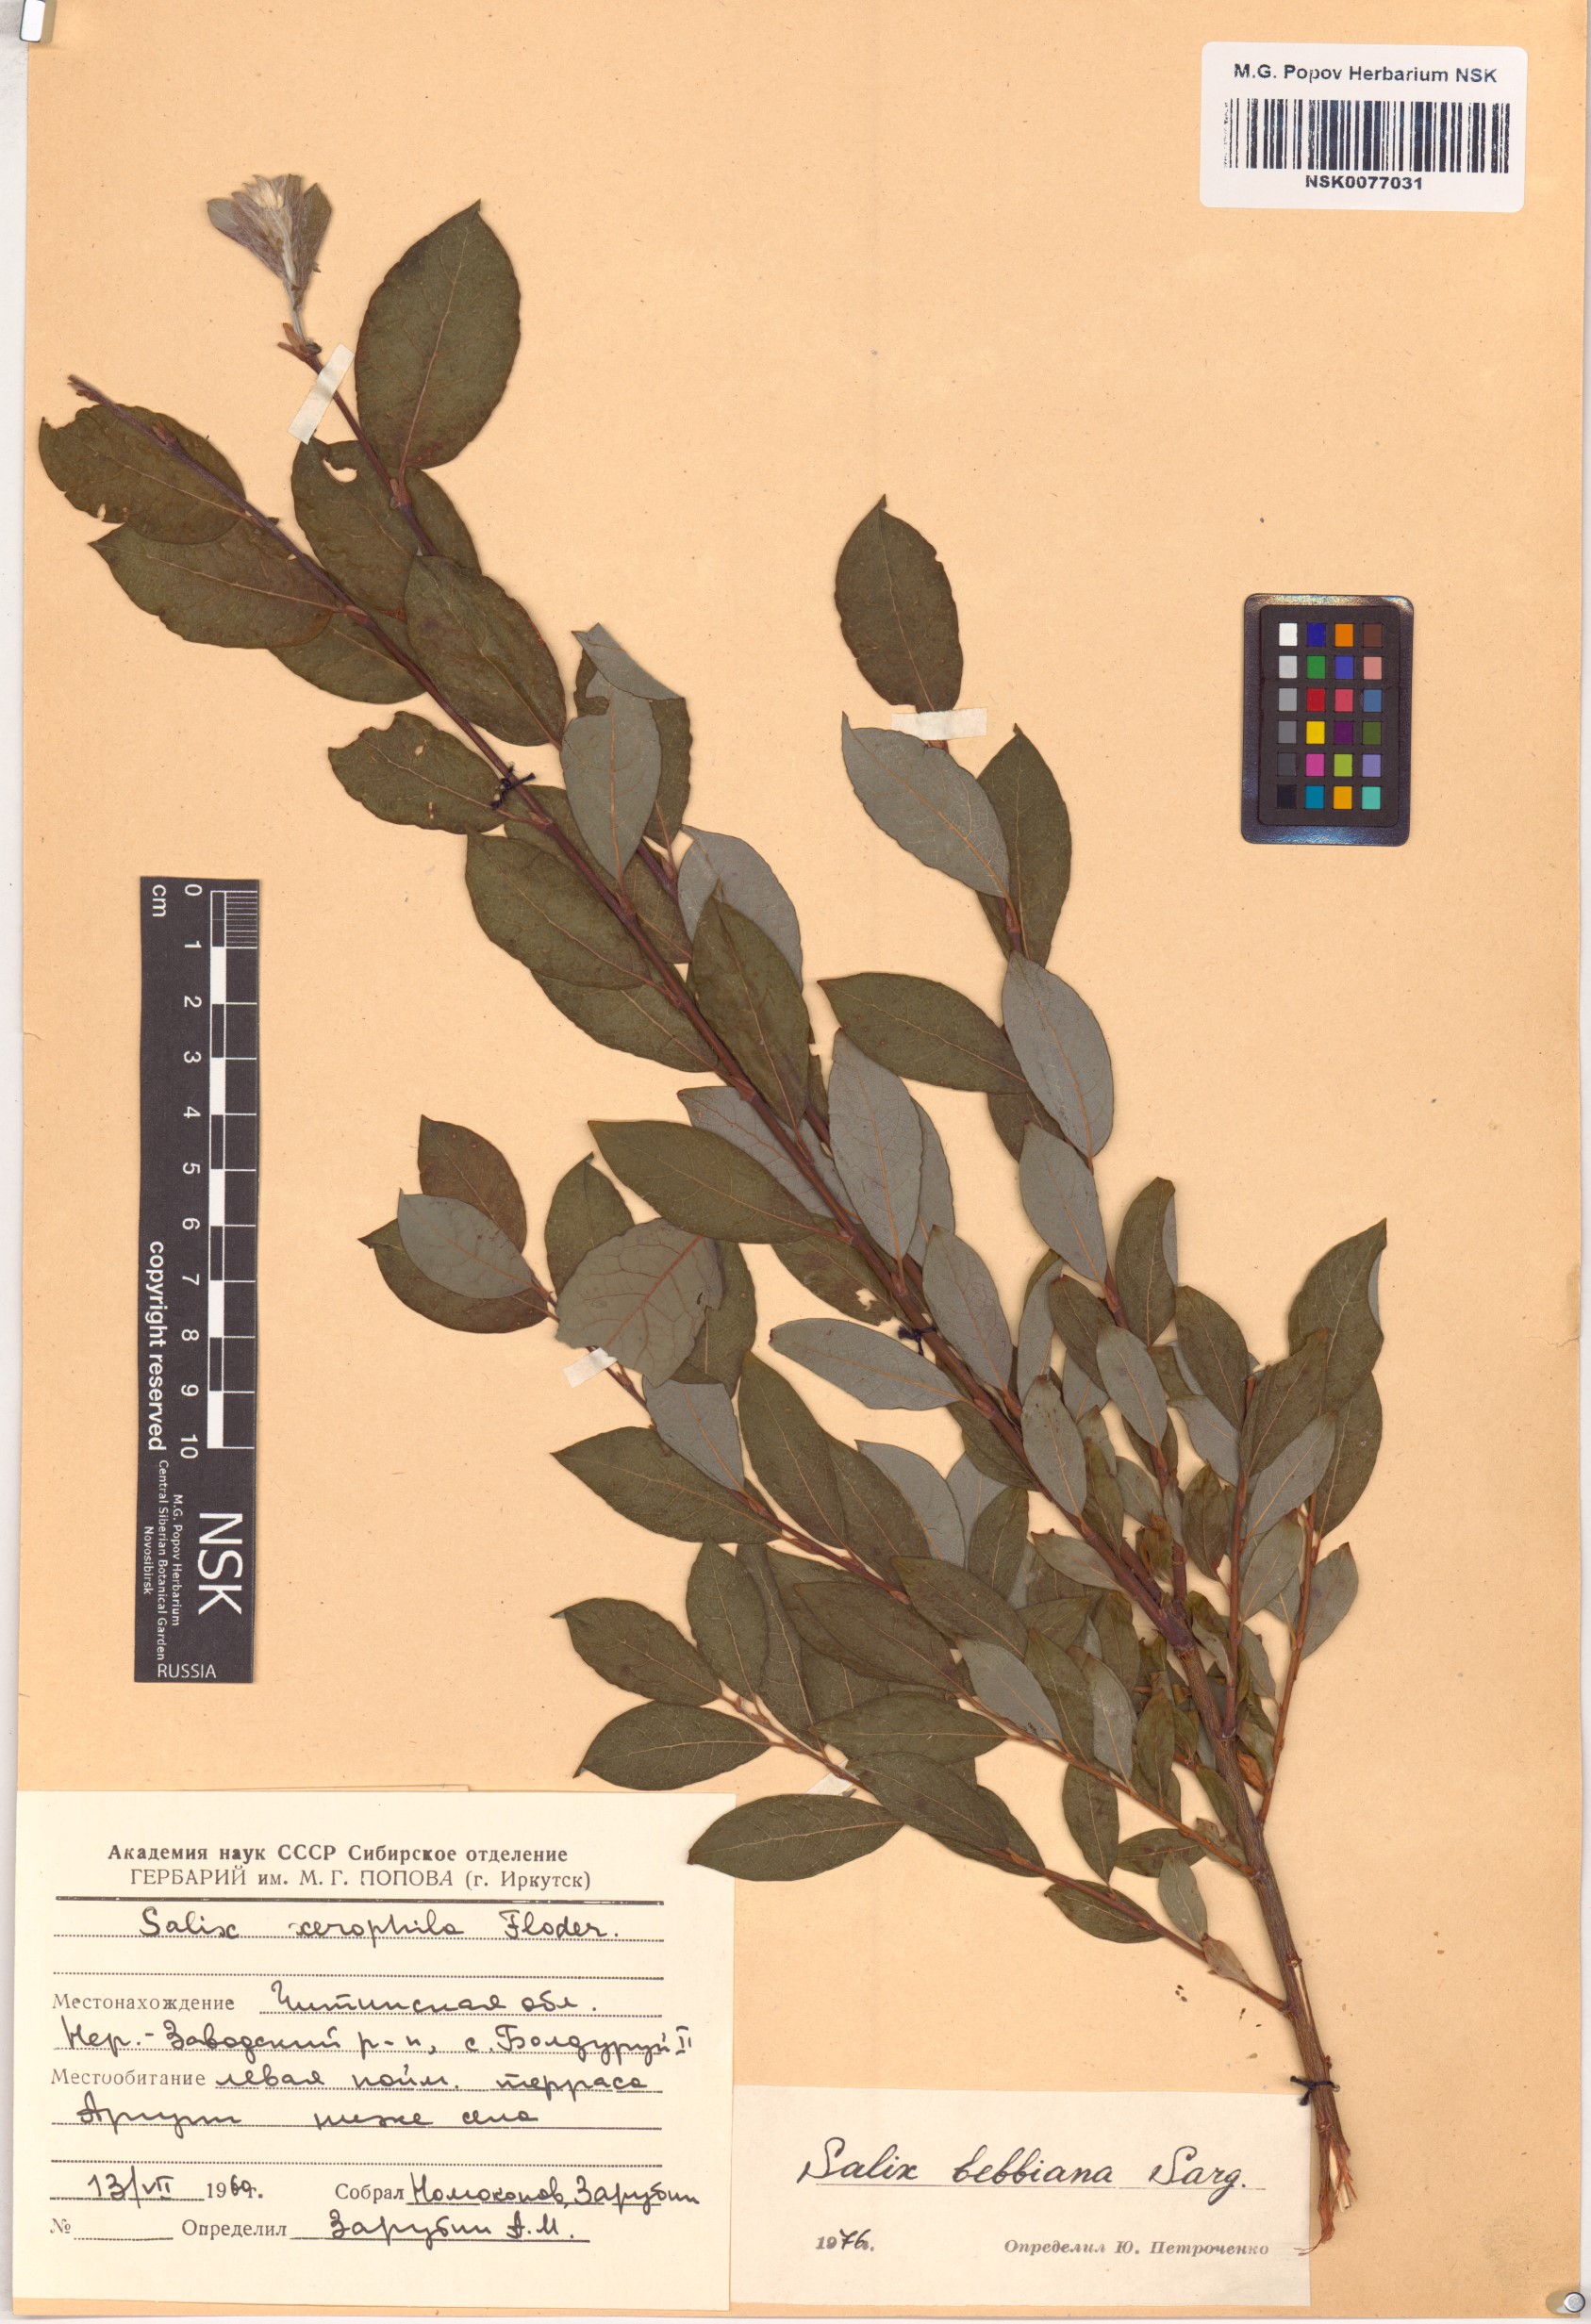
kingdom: Plantae
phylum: Tracheophyta
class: Magnoliopsida
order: Malpighiales
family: Salicaceae
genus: Salix
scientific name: Salix bebbiana
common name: Bebb's willow
